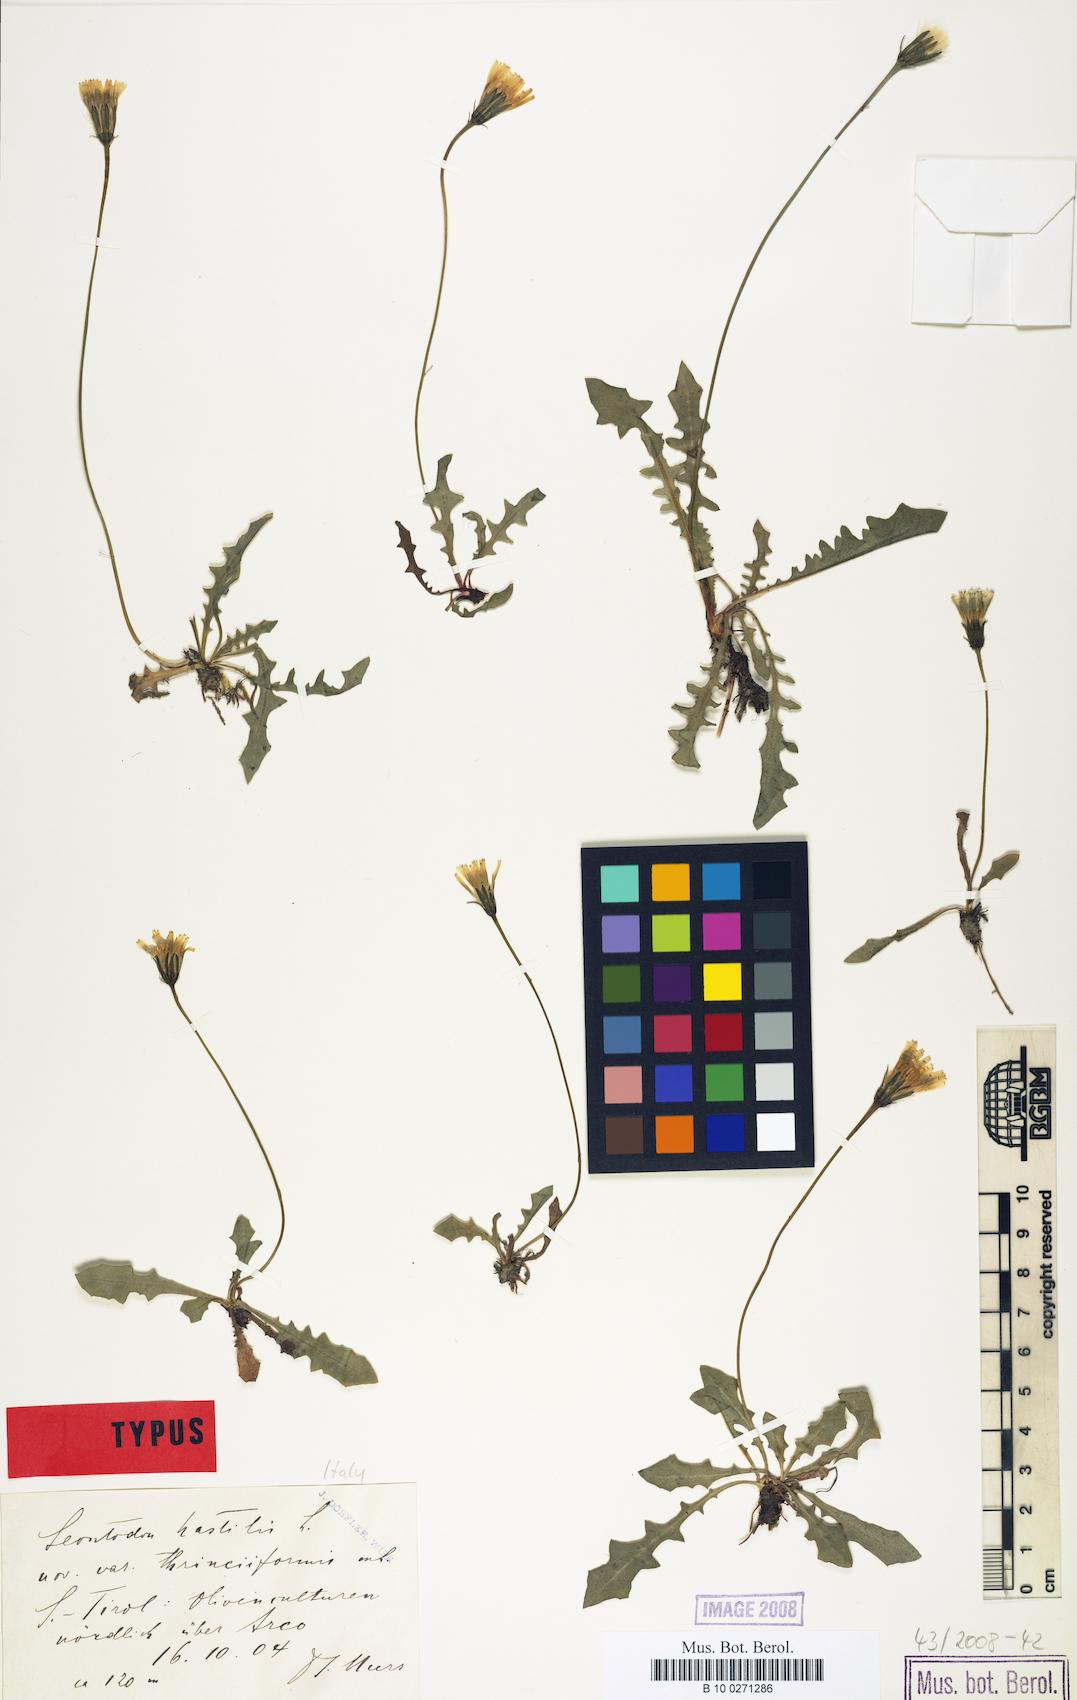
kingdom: Plantae
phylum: Tracheophyta
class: Magnoliopsida
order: Asterales
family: Asteraceae
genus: Leontodon
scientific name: Leontodon hispidus
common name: Rough hawkbit
